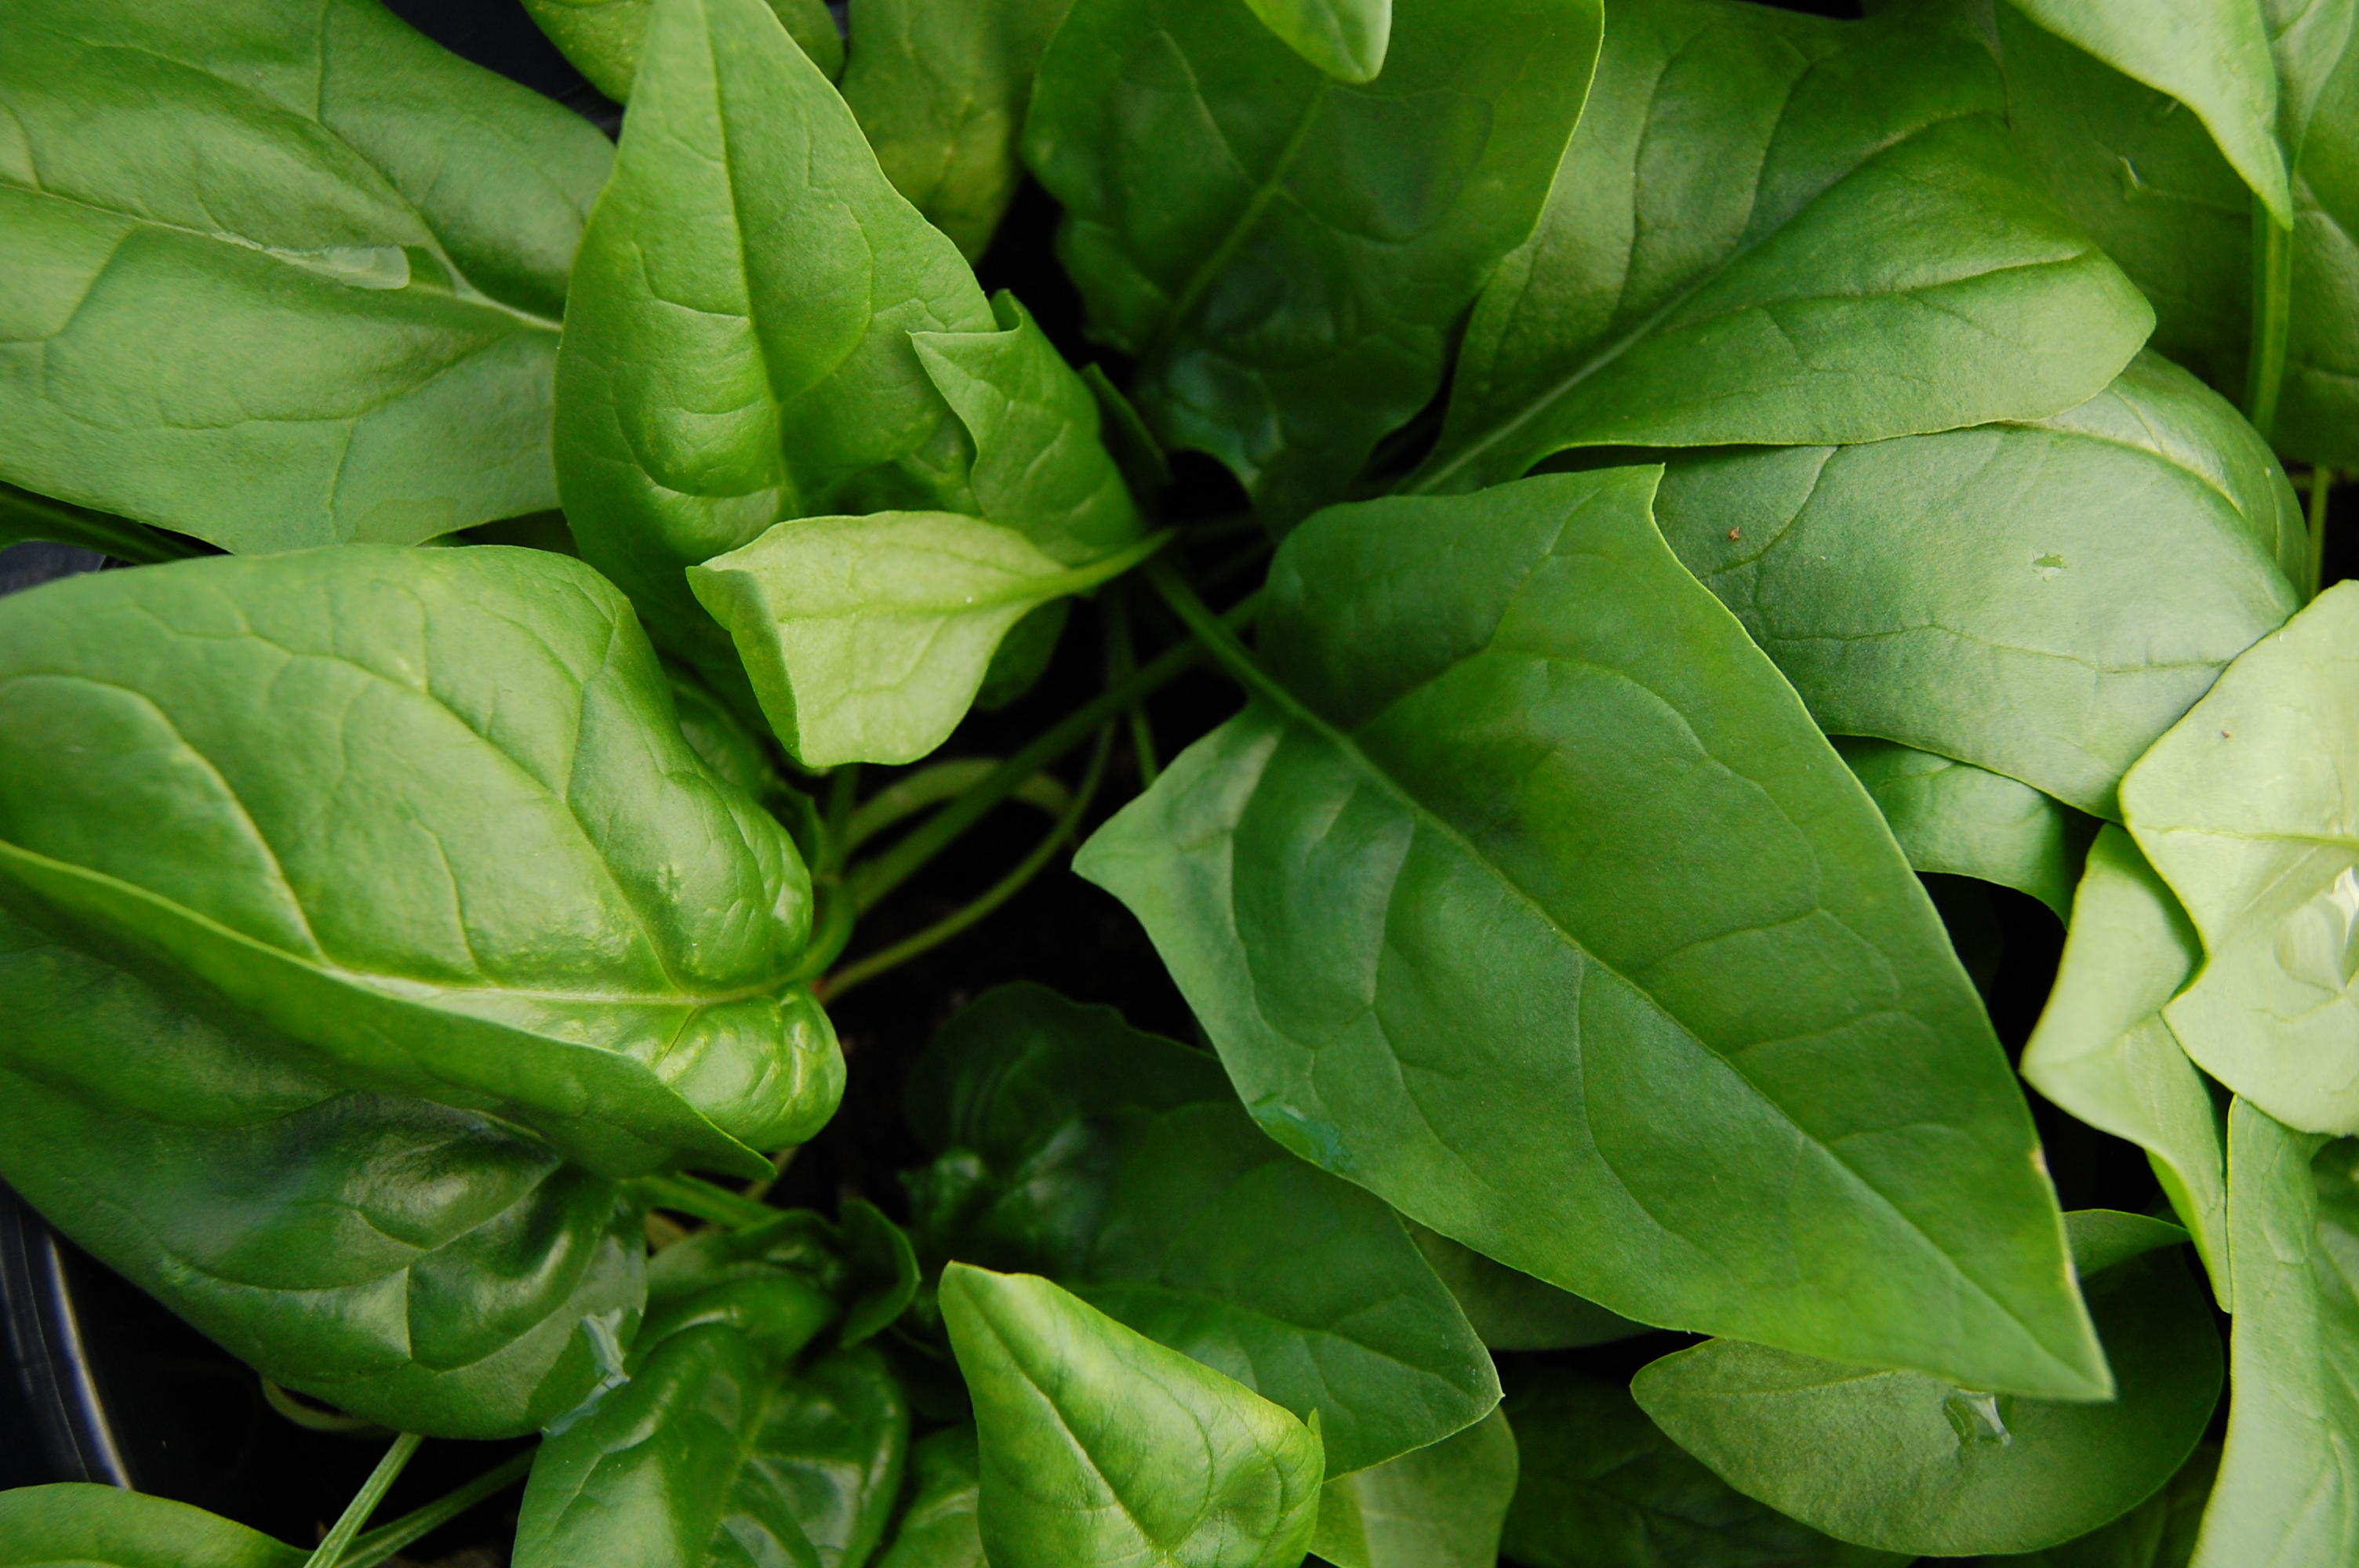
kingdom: Plantae
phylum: Tracheophyta
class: Magnoliopsida
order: Caryophyllales
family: Amaranthaceae
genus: Spinacia
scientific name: Spinacia oleracea
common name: Spinach
